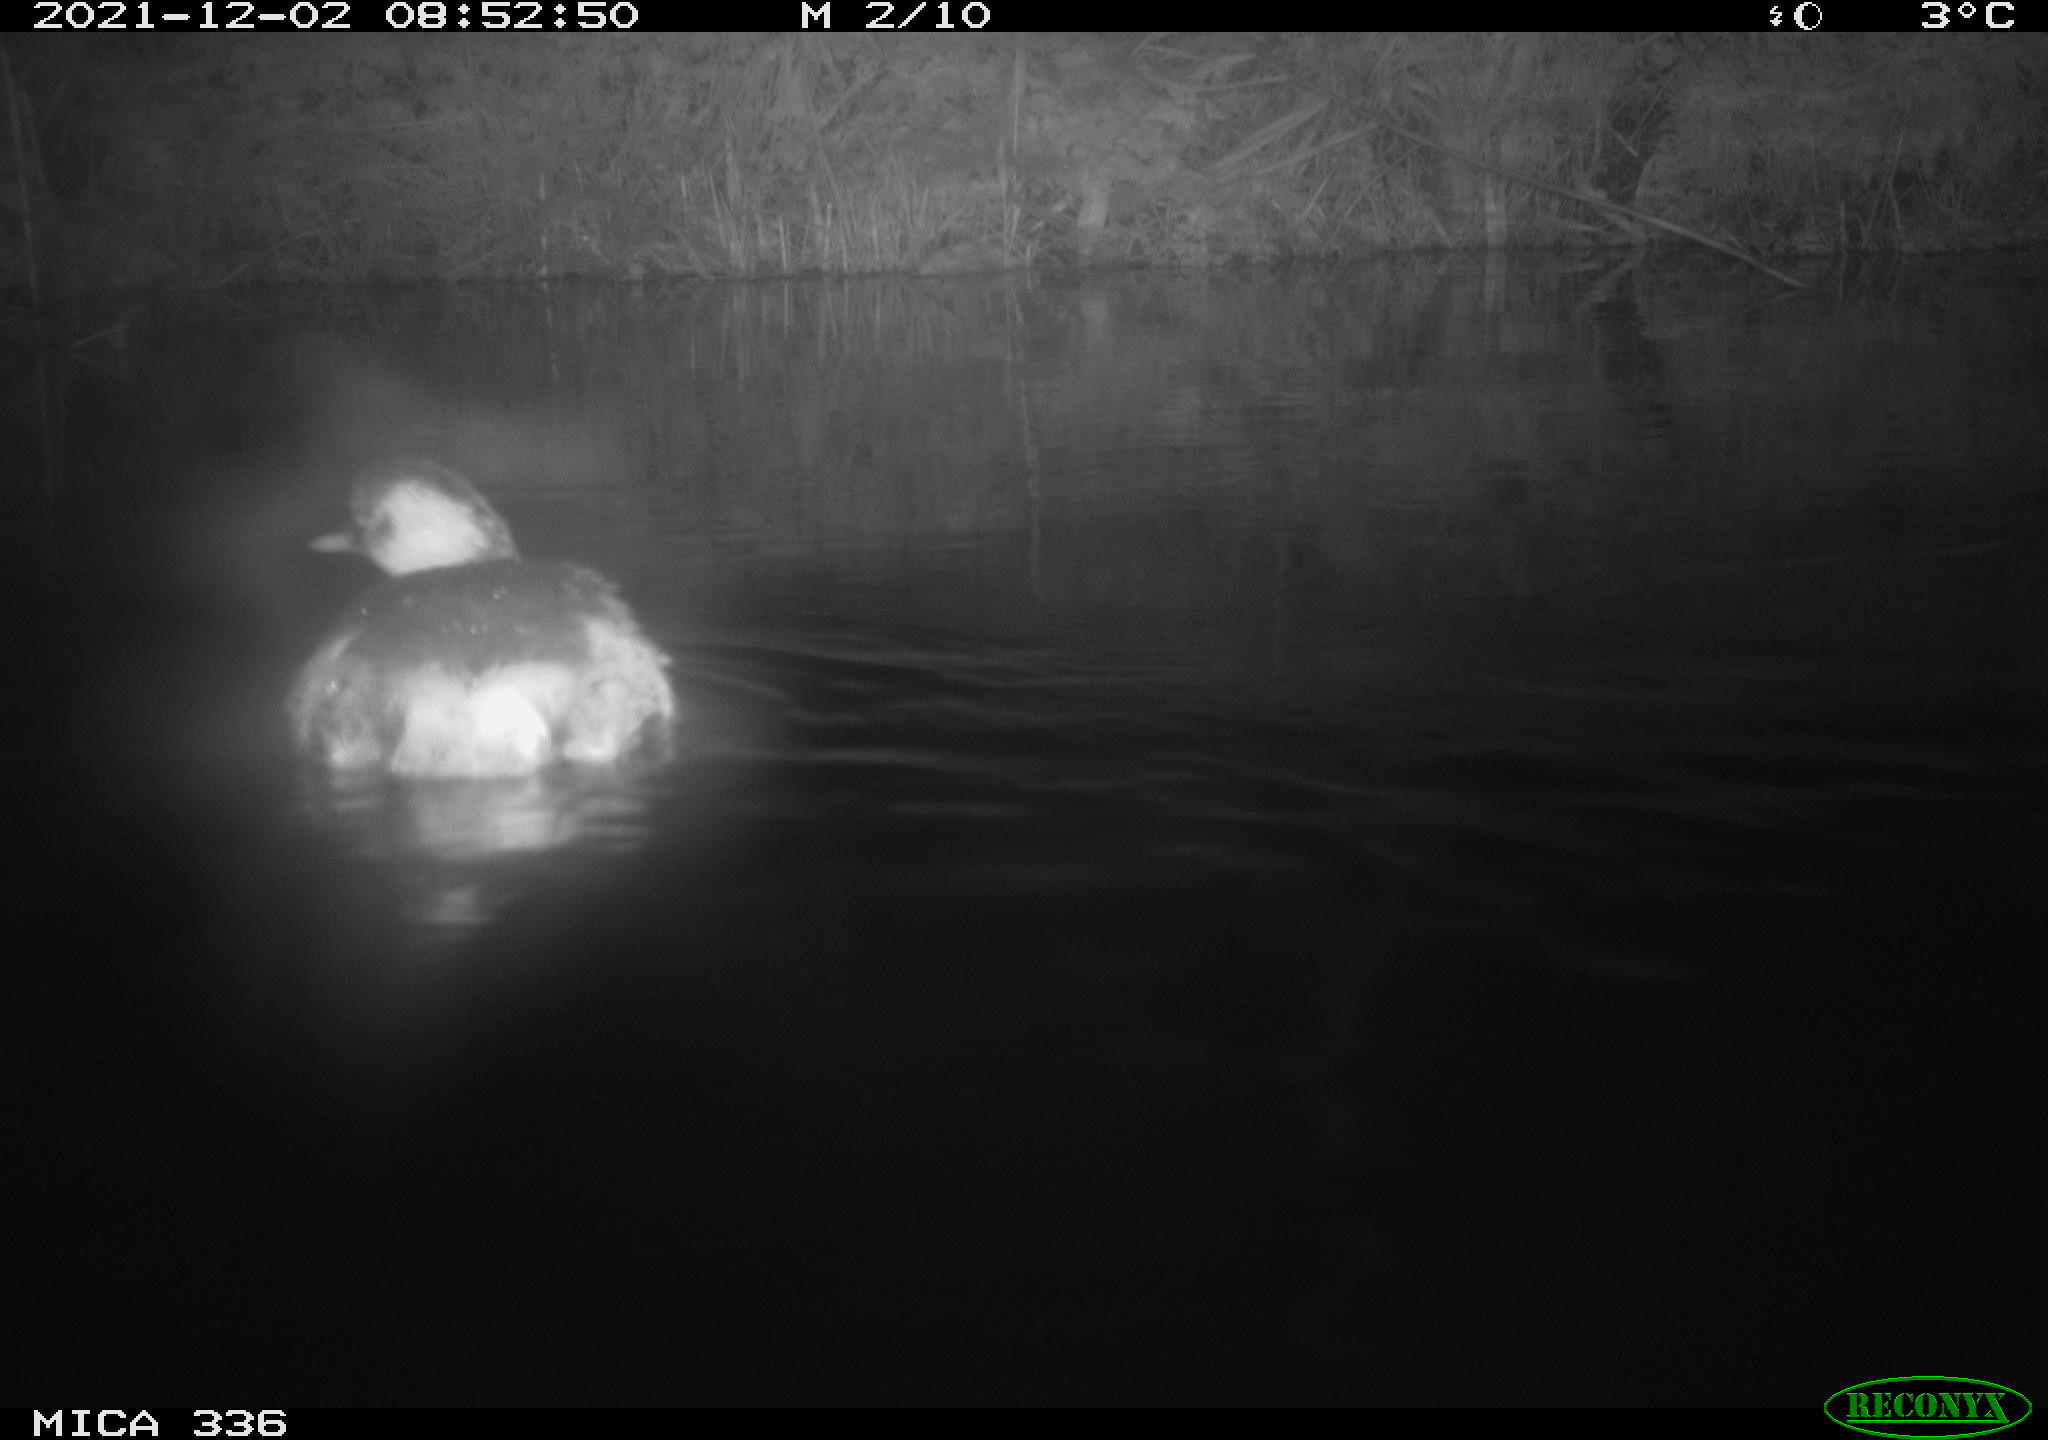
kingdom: Animalia
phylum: Chordata
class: Aves
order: Podicipediformes
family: Podicipedidae
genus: Tachybaptus
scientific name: Tachybaptus ruficollis
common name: Little grebe
